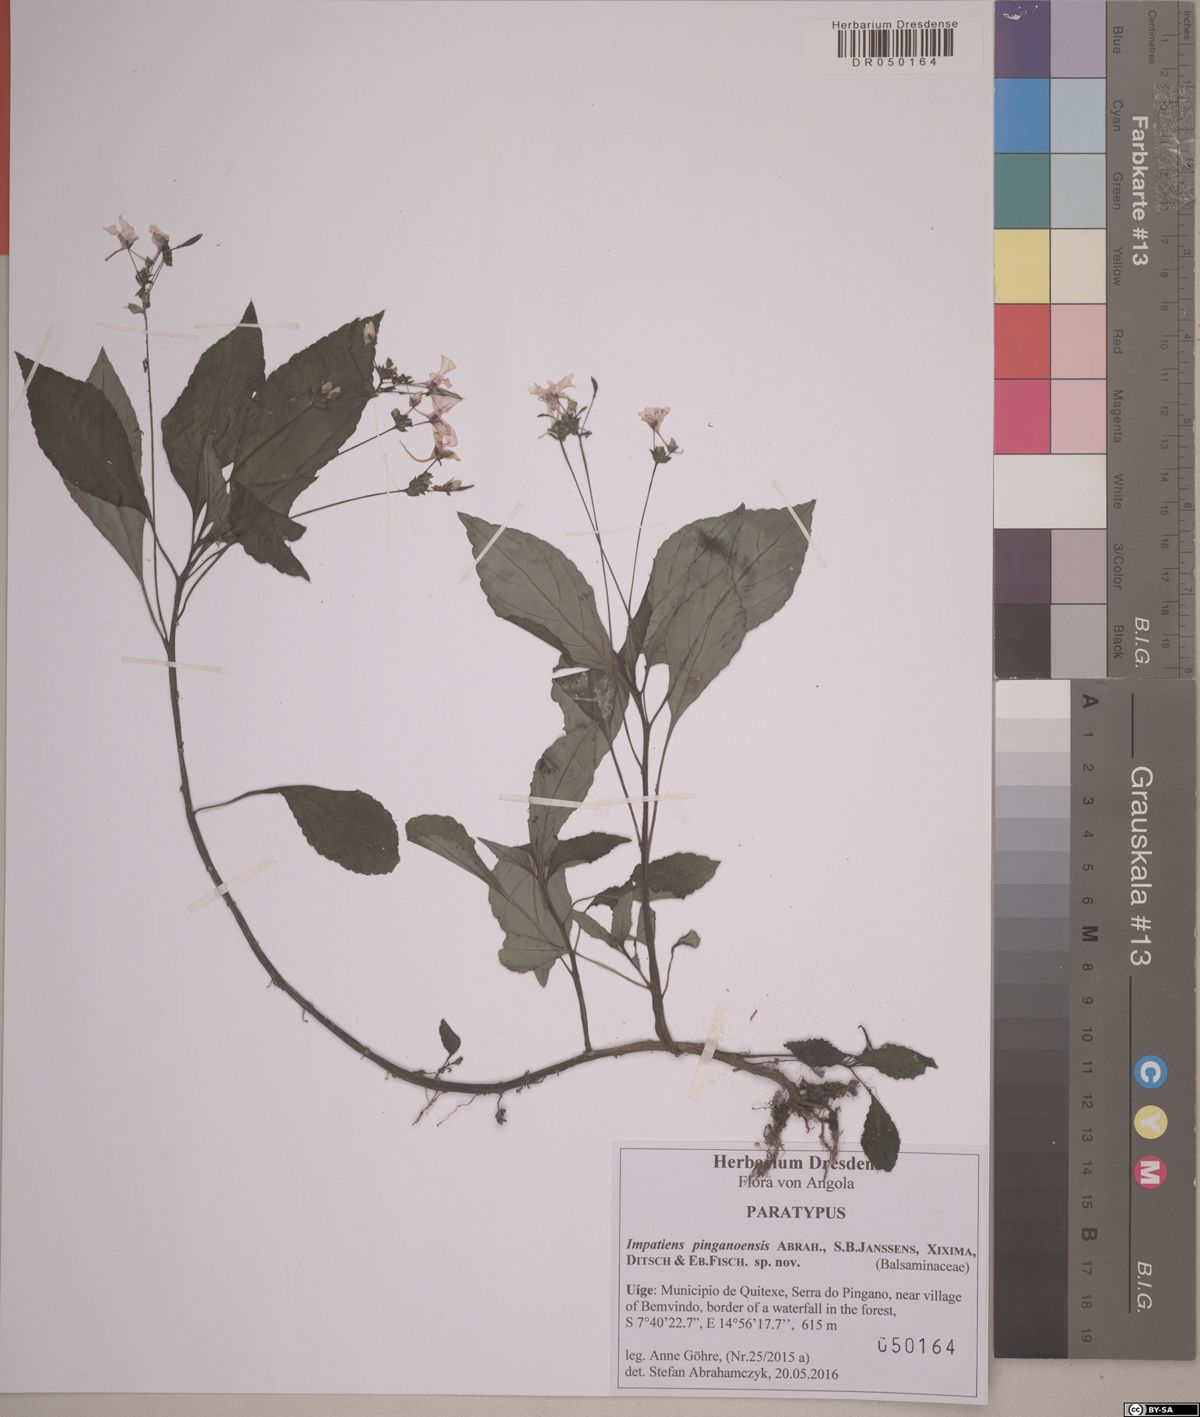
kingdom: Plantae
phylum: Tracheophyta
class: Magnoliopsida
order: Ericales
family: Balsaminaceae
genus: Impatiens
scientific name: Impatiens pinganoensis
